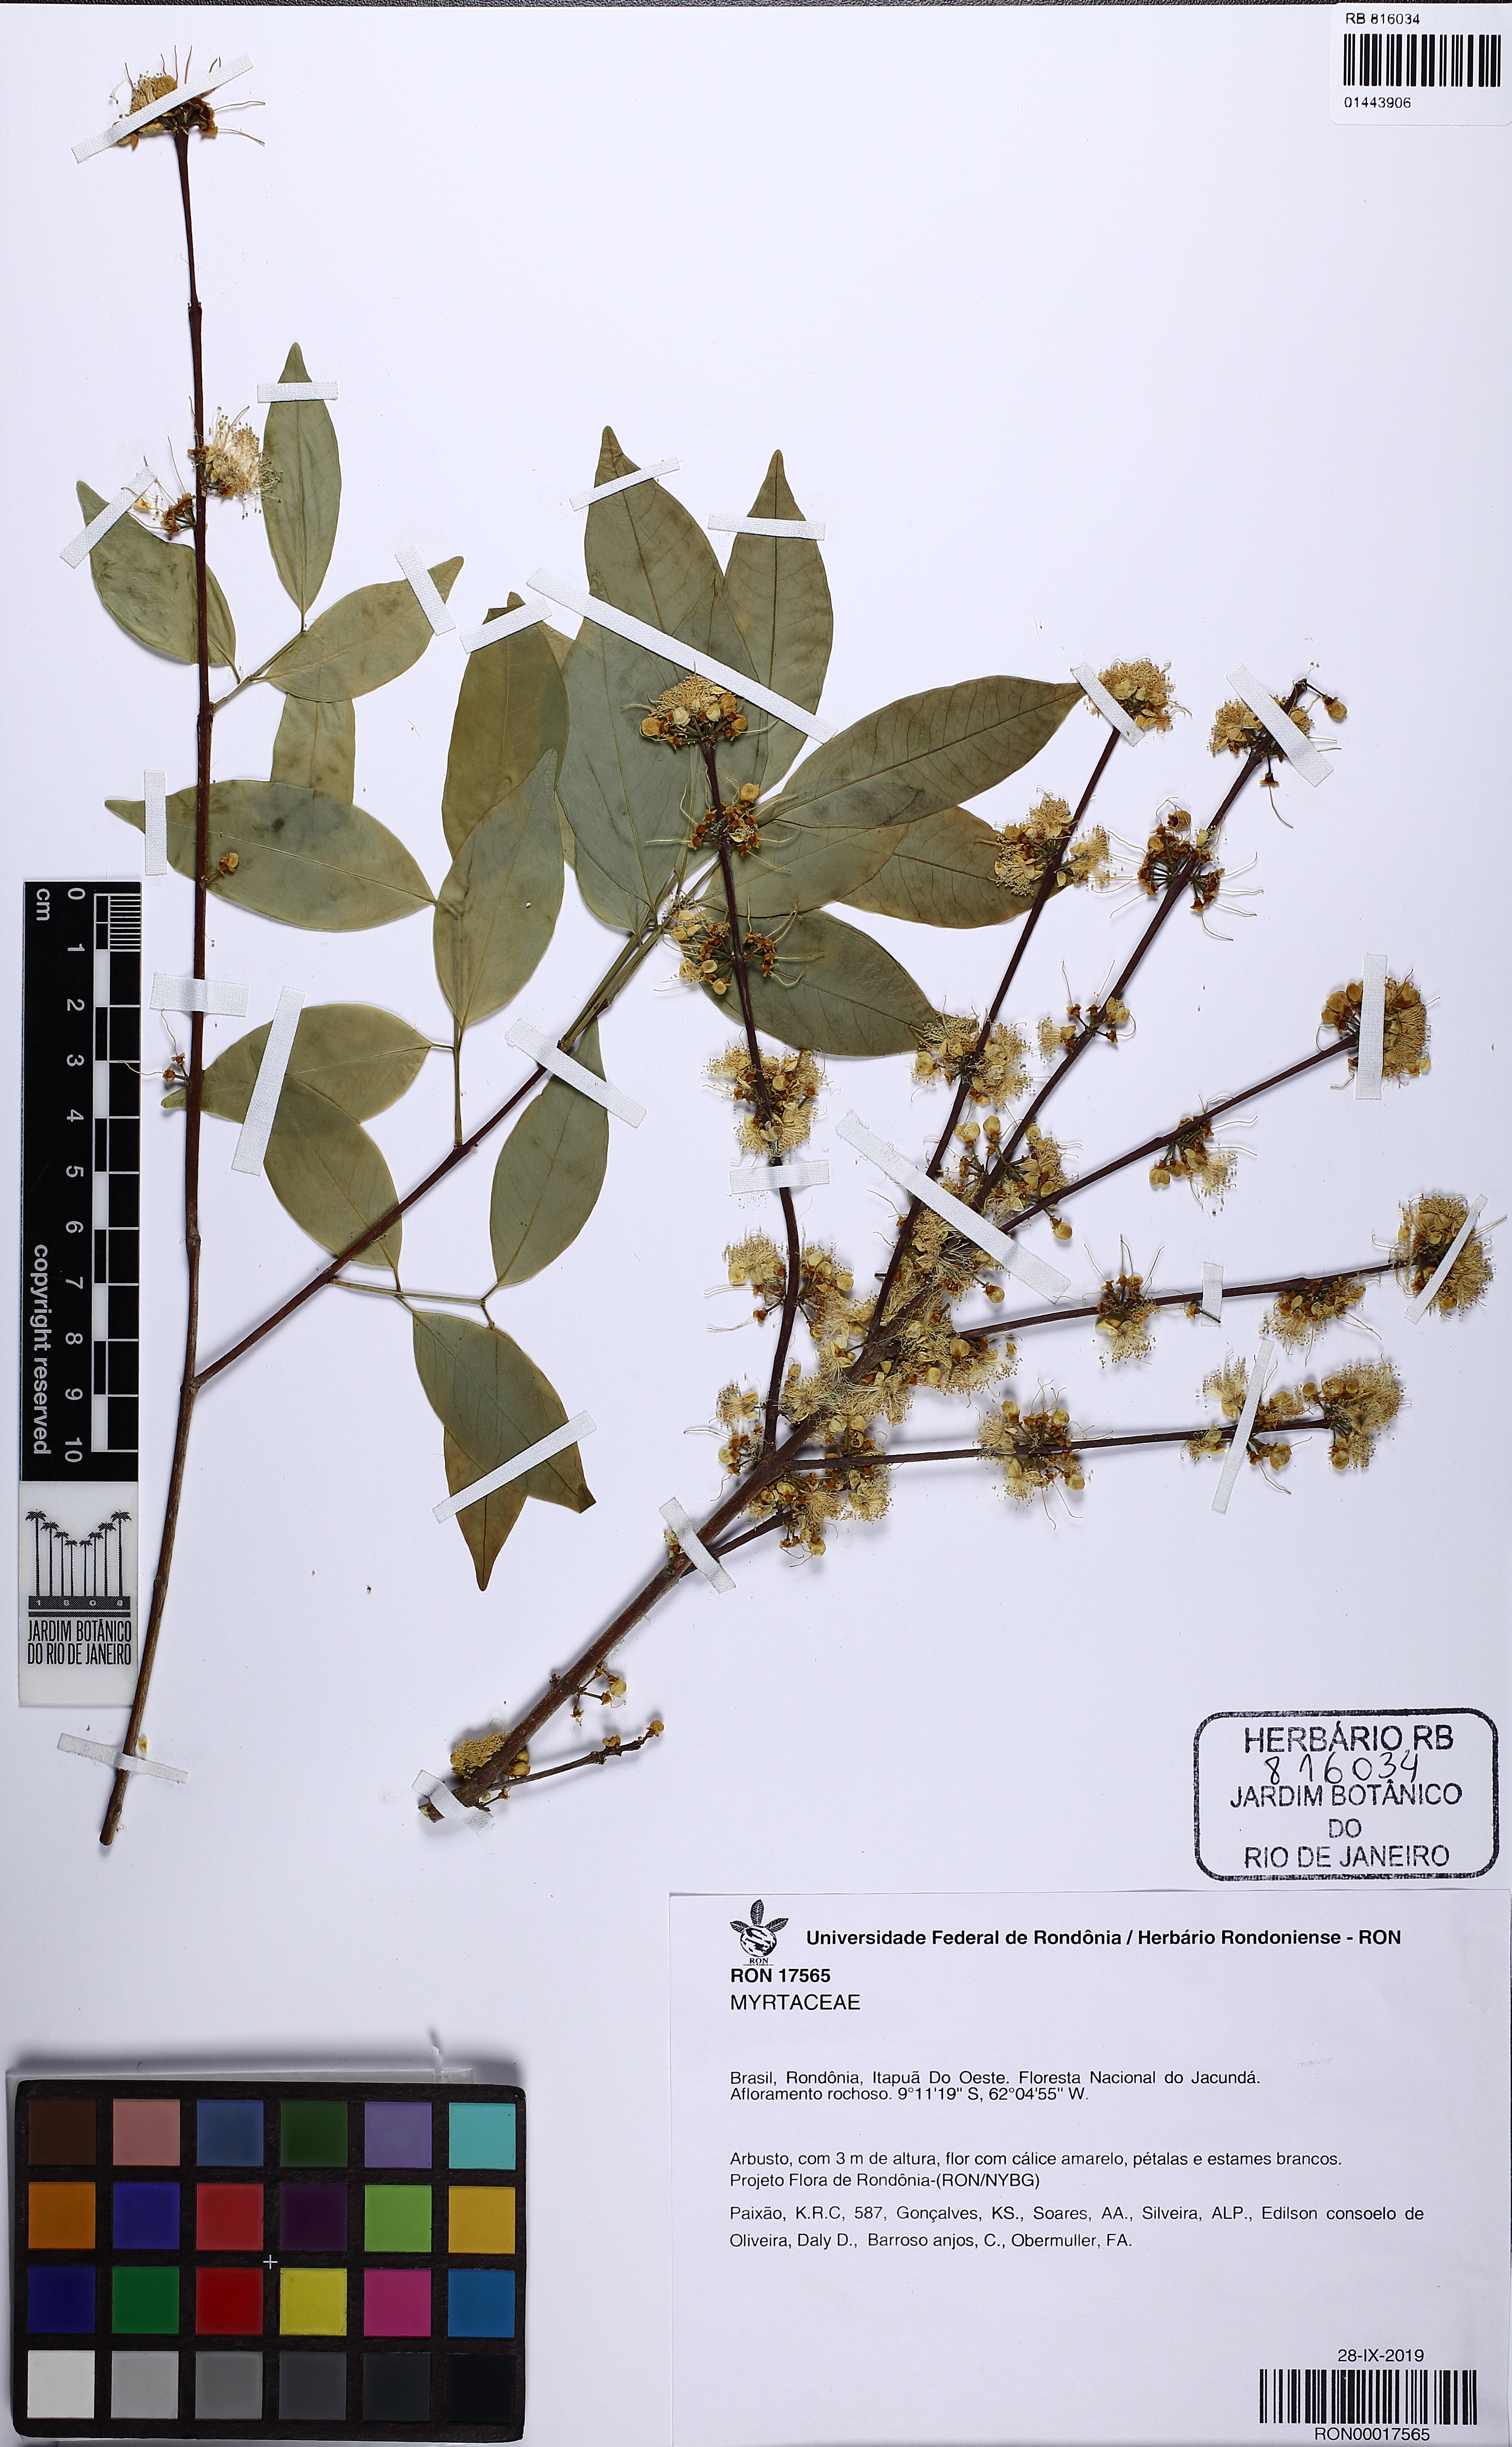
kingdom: Plantae
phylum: Tracheophyta
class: Magnoliopsida
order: Myrtales
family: Myrtaceae
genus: Eugenia
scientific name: Eugenia flavescens
